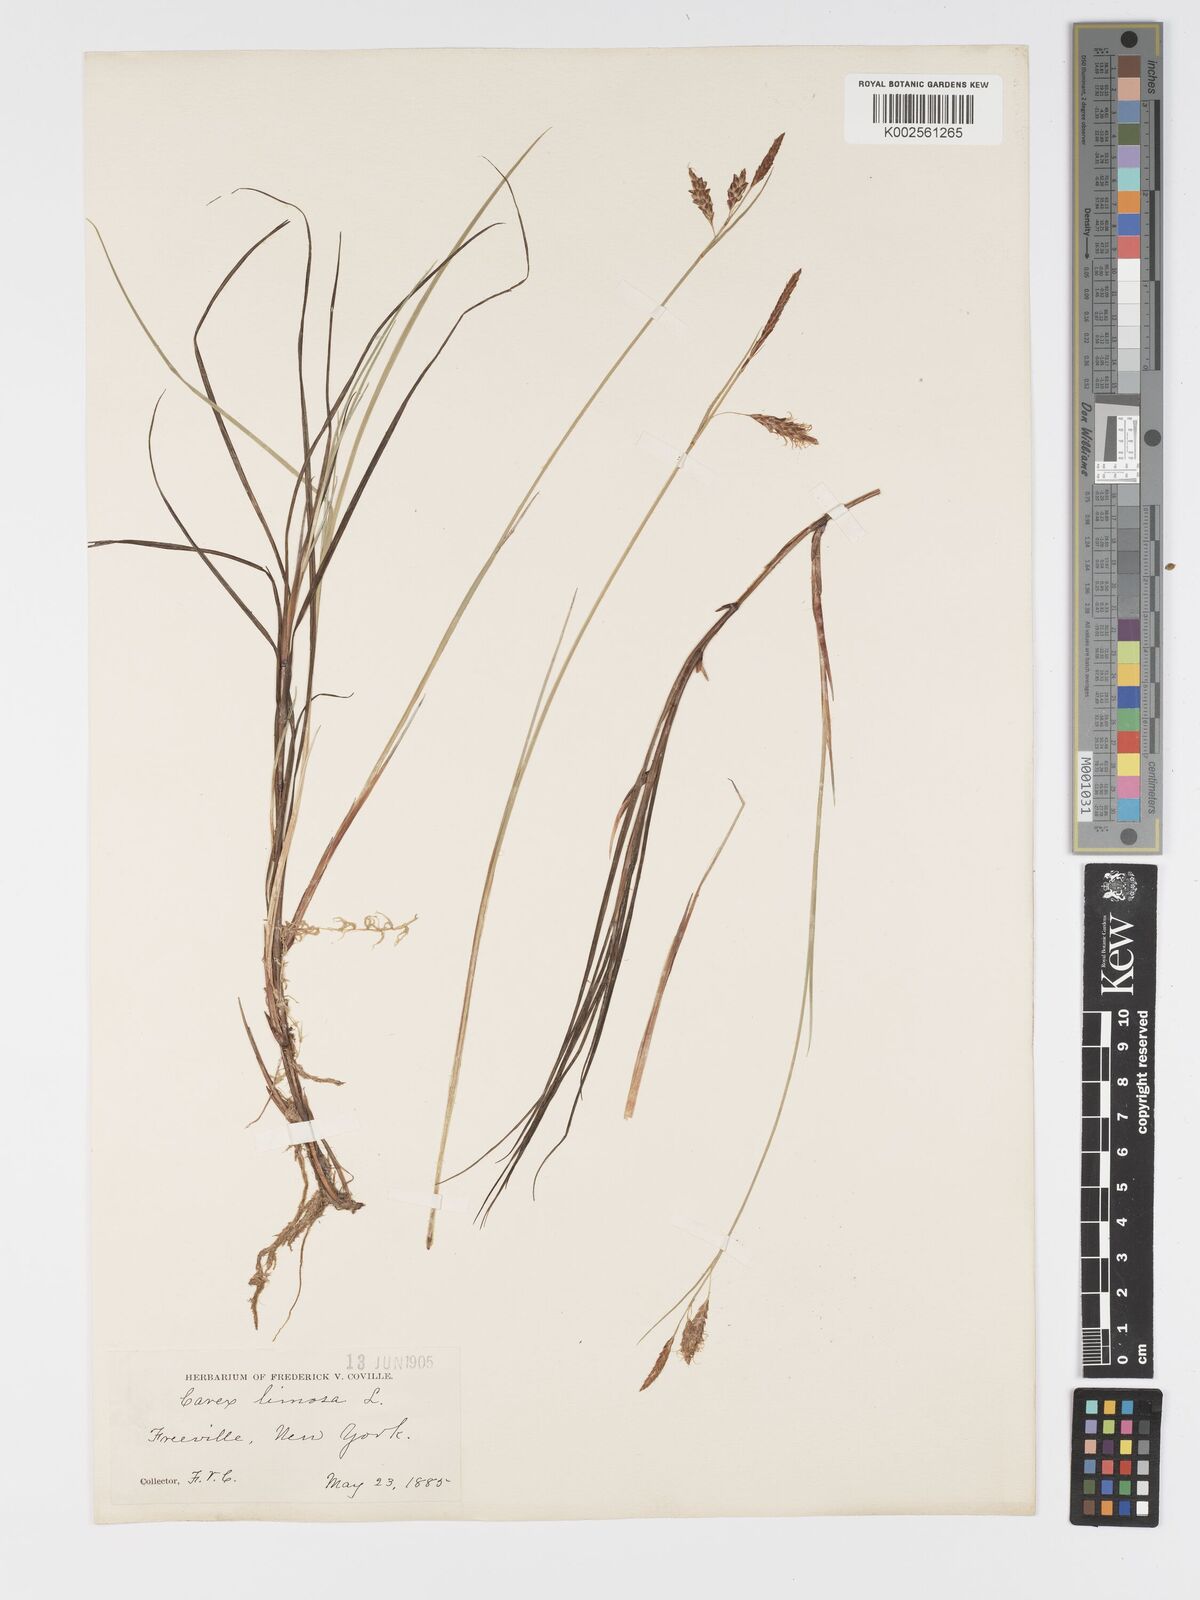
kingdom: Plantae
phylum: Tracheophyta
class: Liliopsida
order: Poales
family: Cyperaceae
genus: Carex
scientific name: Carex limosa
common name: Bog sedge
